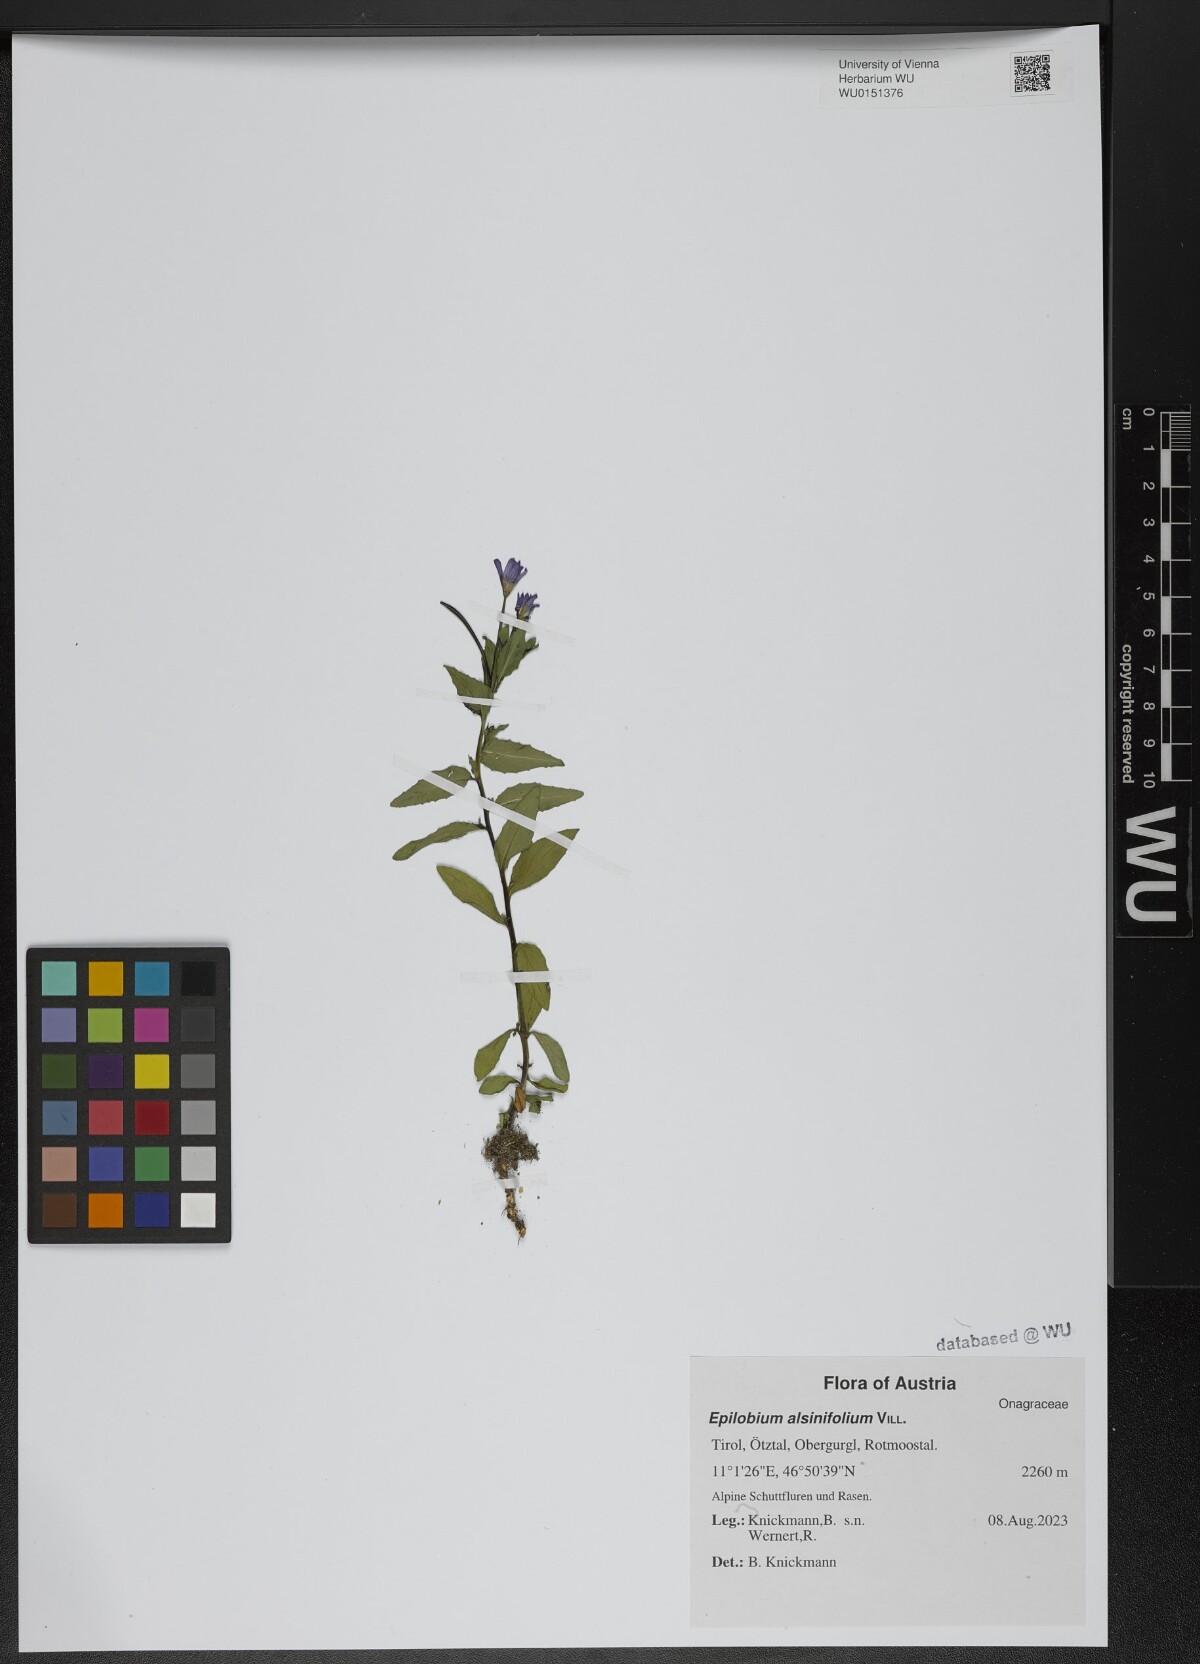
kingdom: Plantae
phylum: Tracheophyta
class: Magnoliopsida
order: Myrtales
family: Onagraceae
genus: Epilobium
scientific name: Epilobium alsinifolium
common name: Chickweed willowherb
